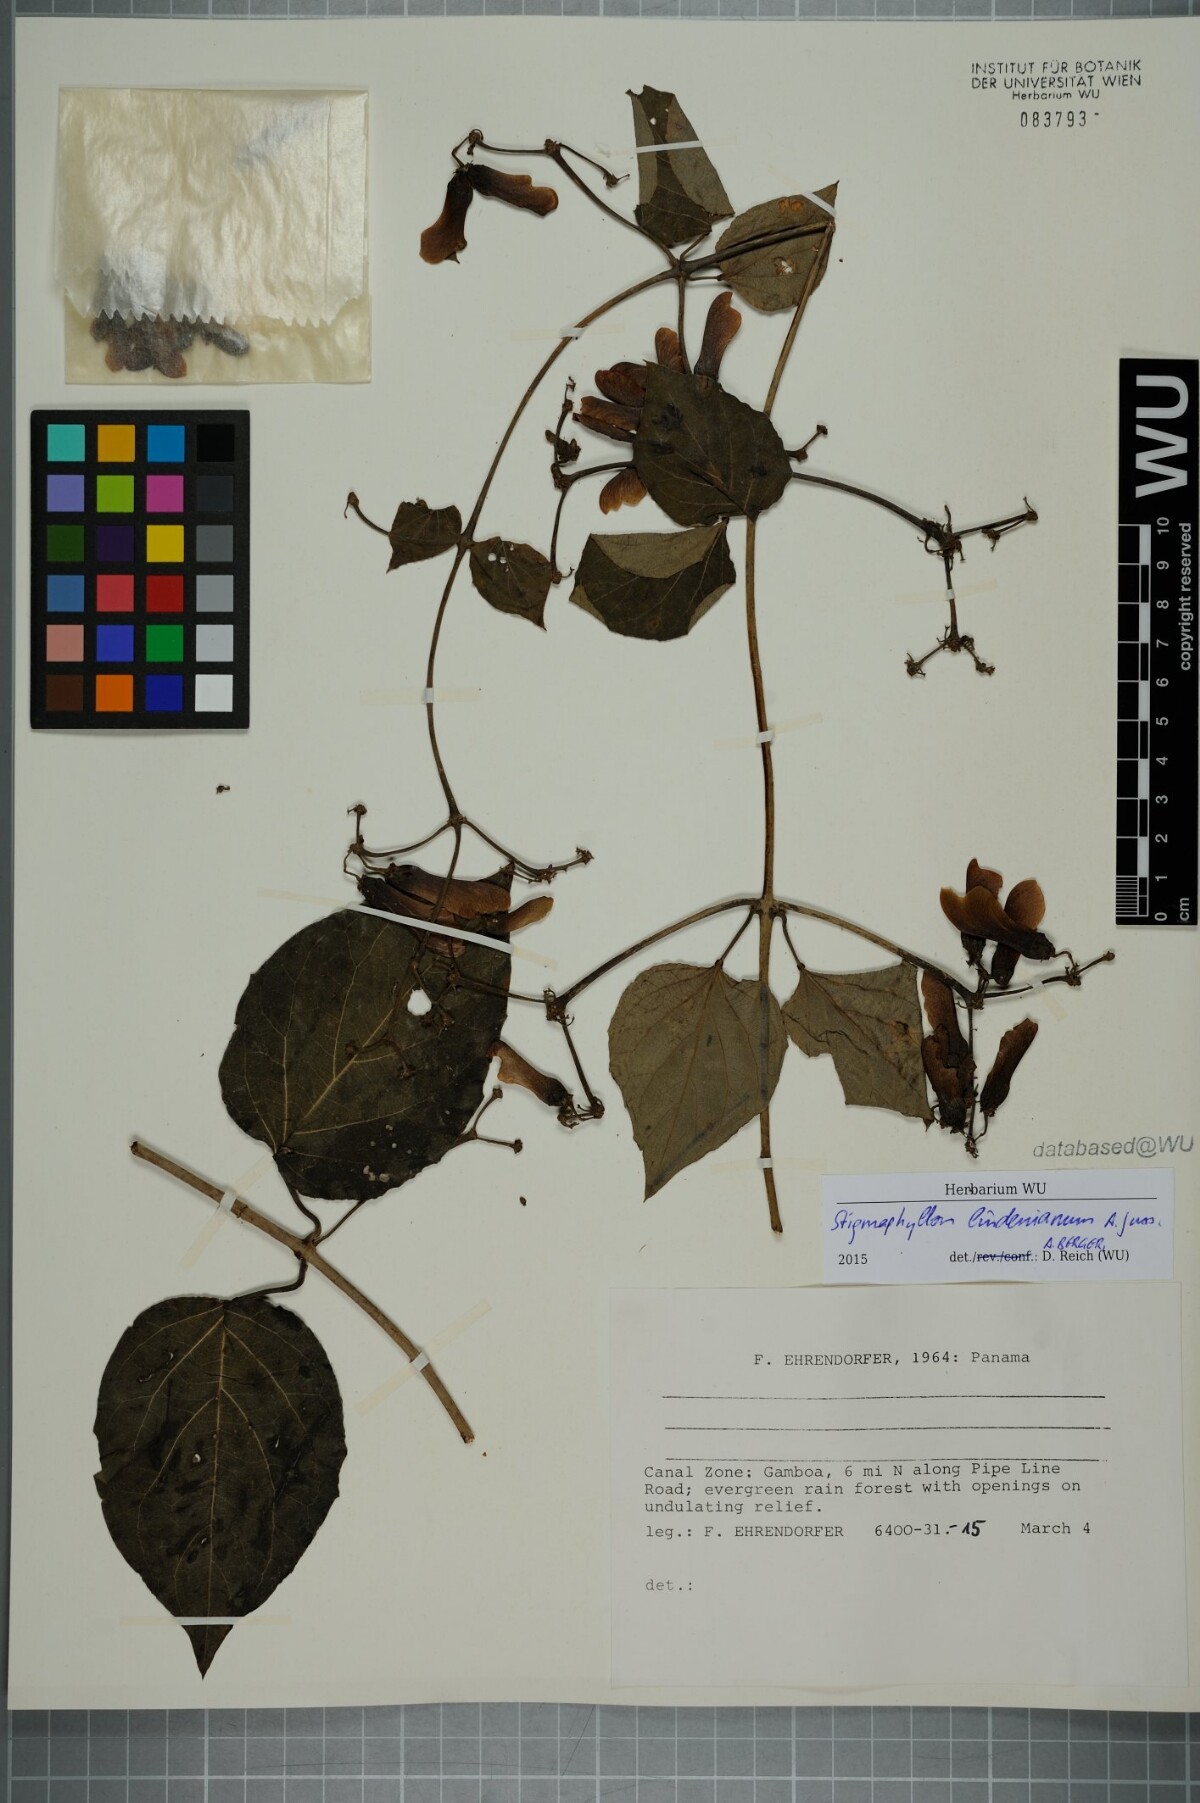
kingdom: Plantae
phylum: Tracheophyta
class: Magnoliopsida
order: Malpighiales
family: Malpighiaceae
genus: Stigmaphyllon
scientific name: Stigmaphyllon lindenianum
